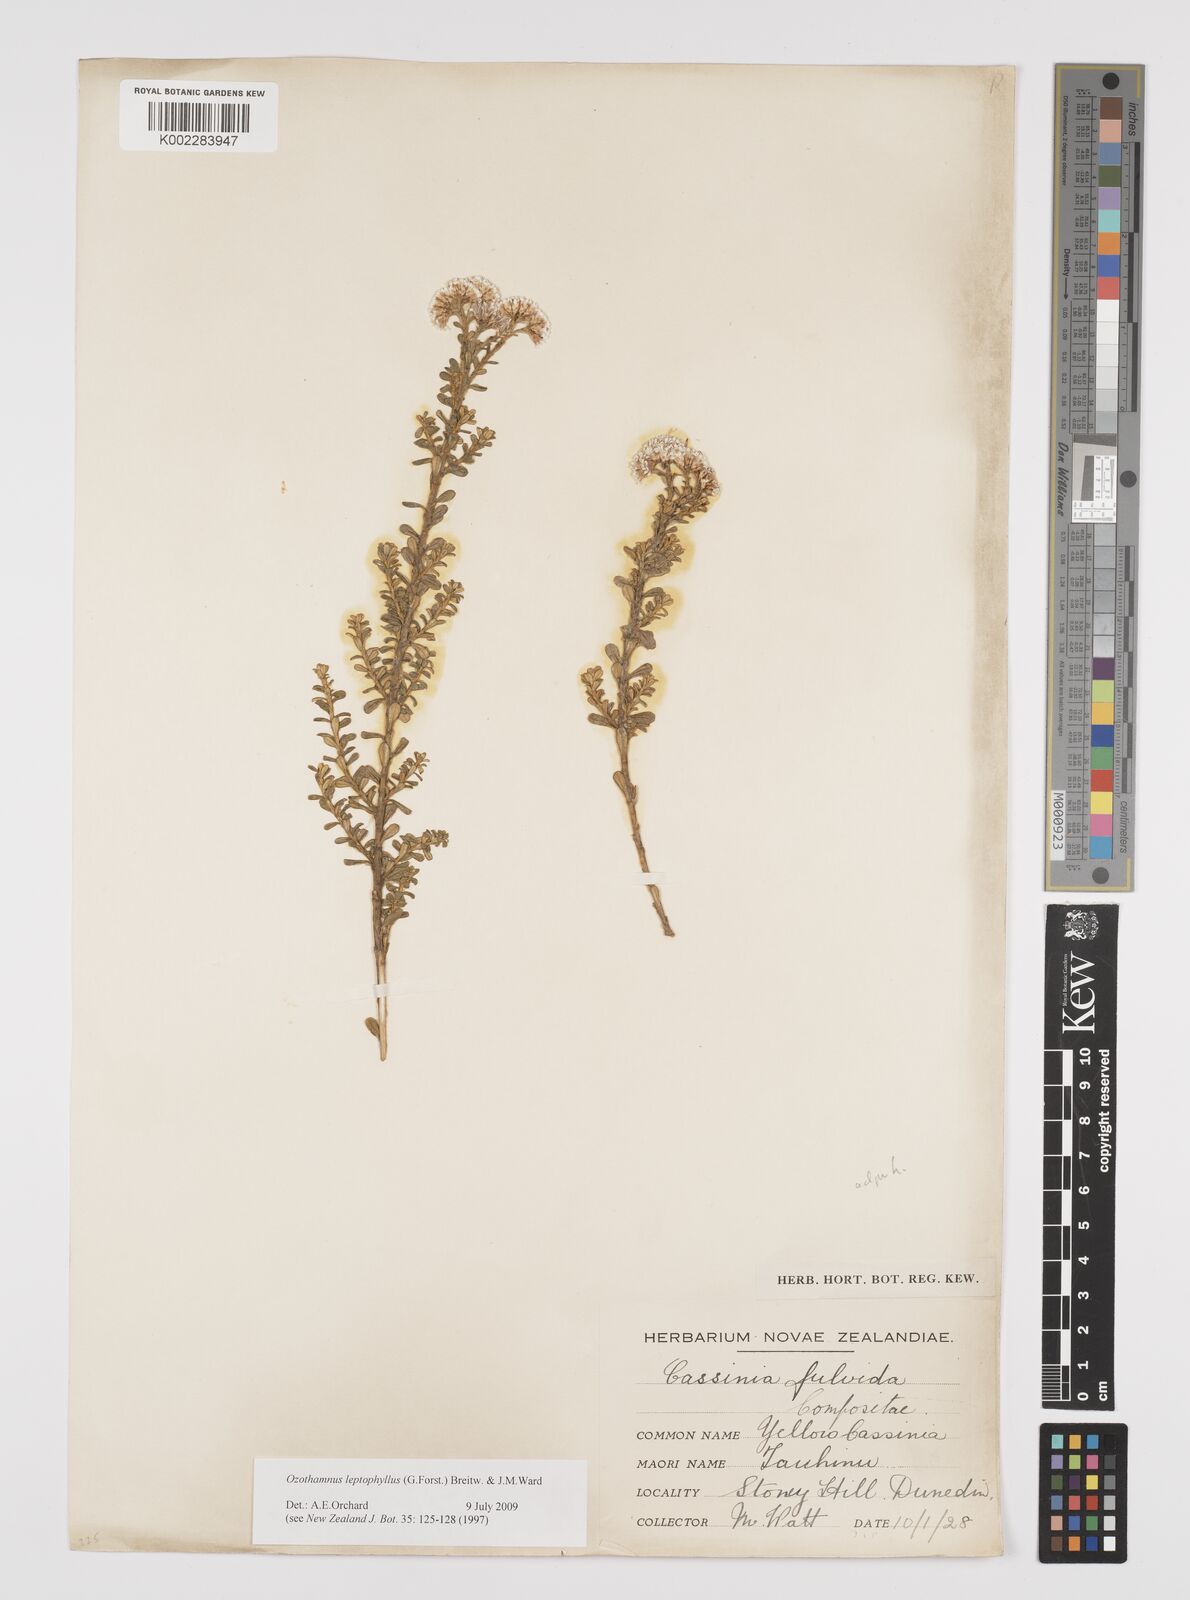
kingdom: Plantae
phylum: Tracheophyta
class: Magnoliopsida
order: Asterales
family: Asteraceae
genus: Ozothamnus
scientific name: Ozothamnus leptophyllus
